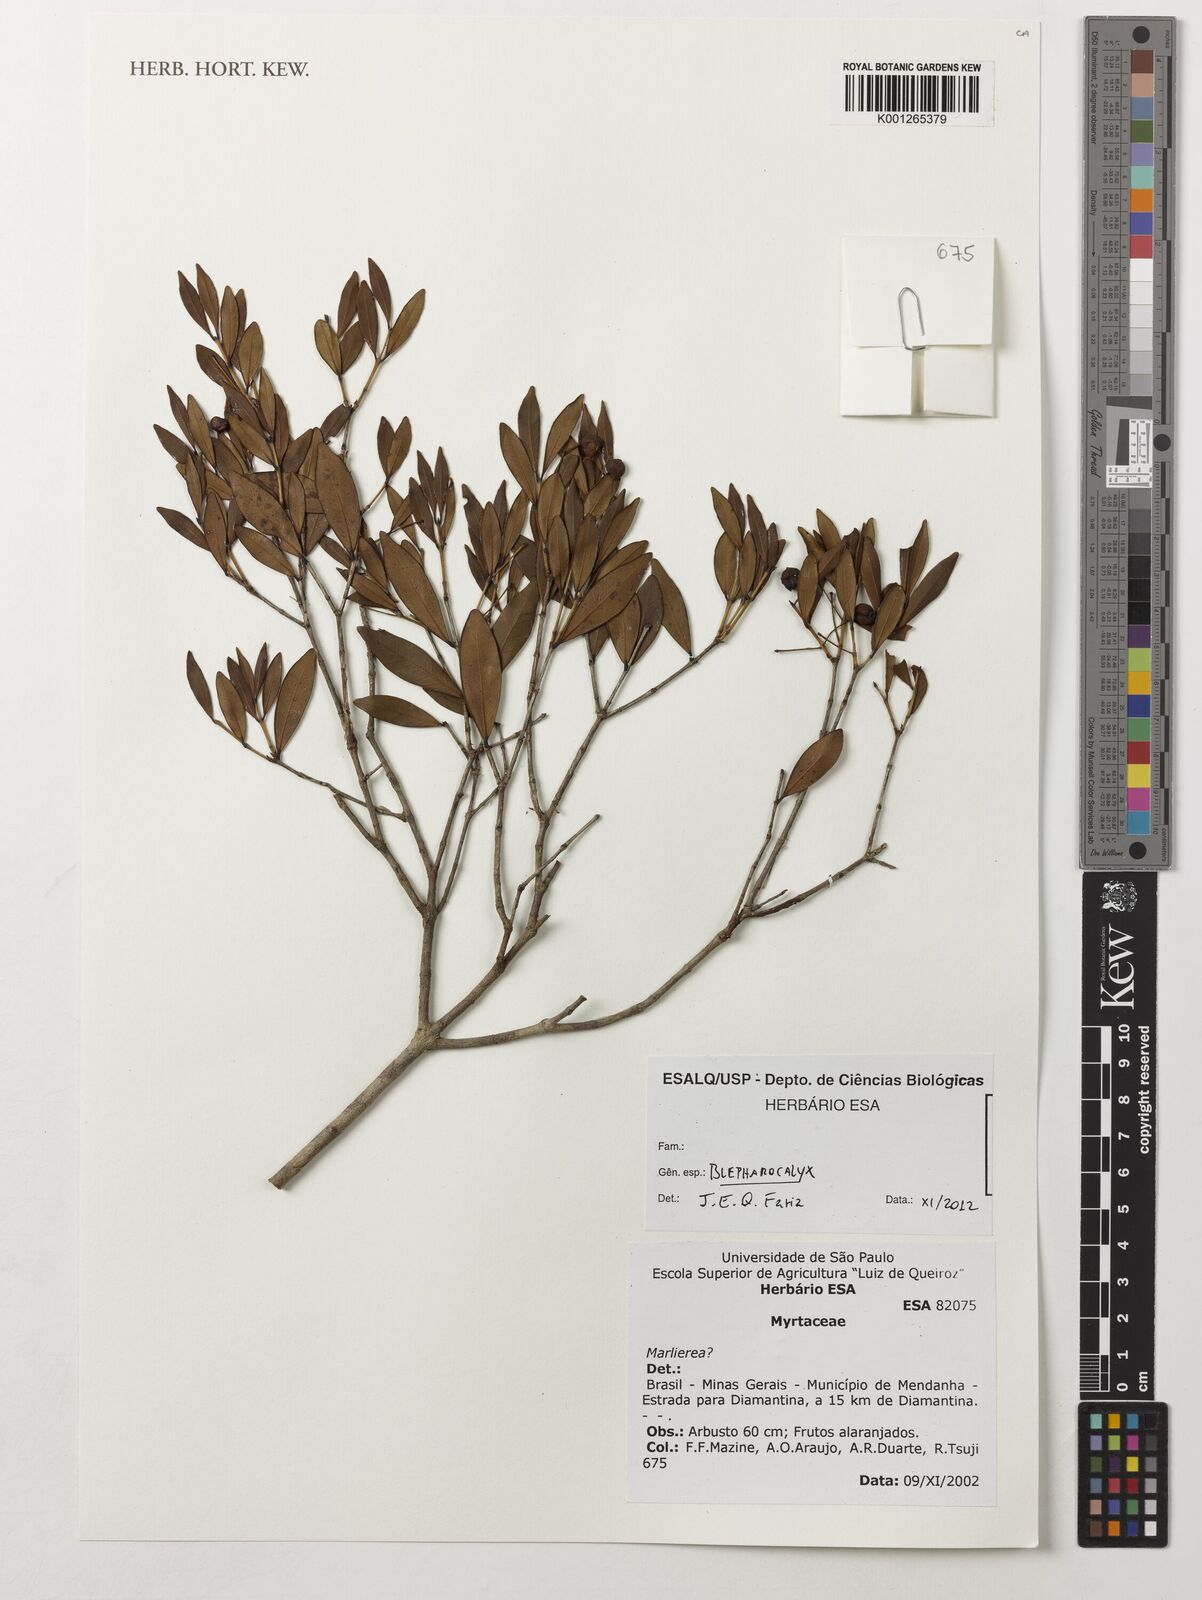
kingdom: Plantae
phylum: Tracheophyta
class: Magnoliopsida
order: Myrtales
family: Myrtaceae
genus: Blepharocalyx
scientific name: Blepharocalyx
